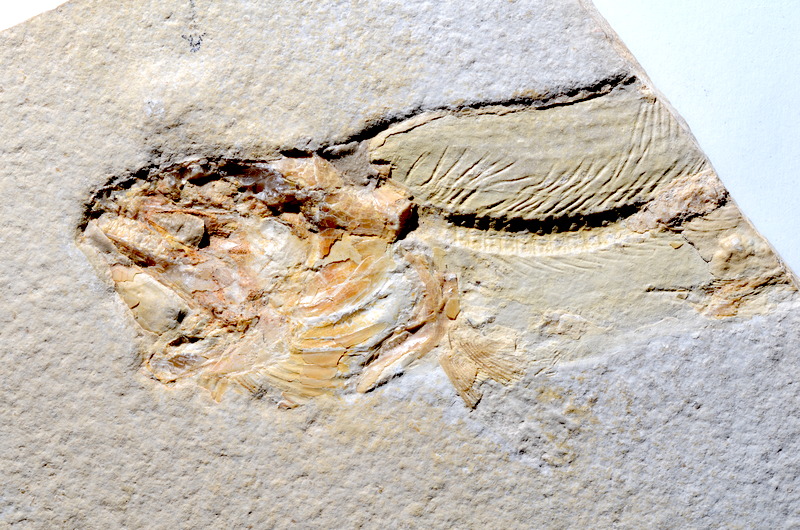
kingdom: Animalia
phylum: Chordata
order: Amiiformes
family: Amiidae
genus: Amiopsis
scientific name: Amiopsis lepidota
